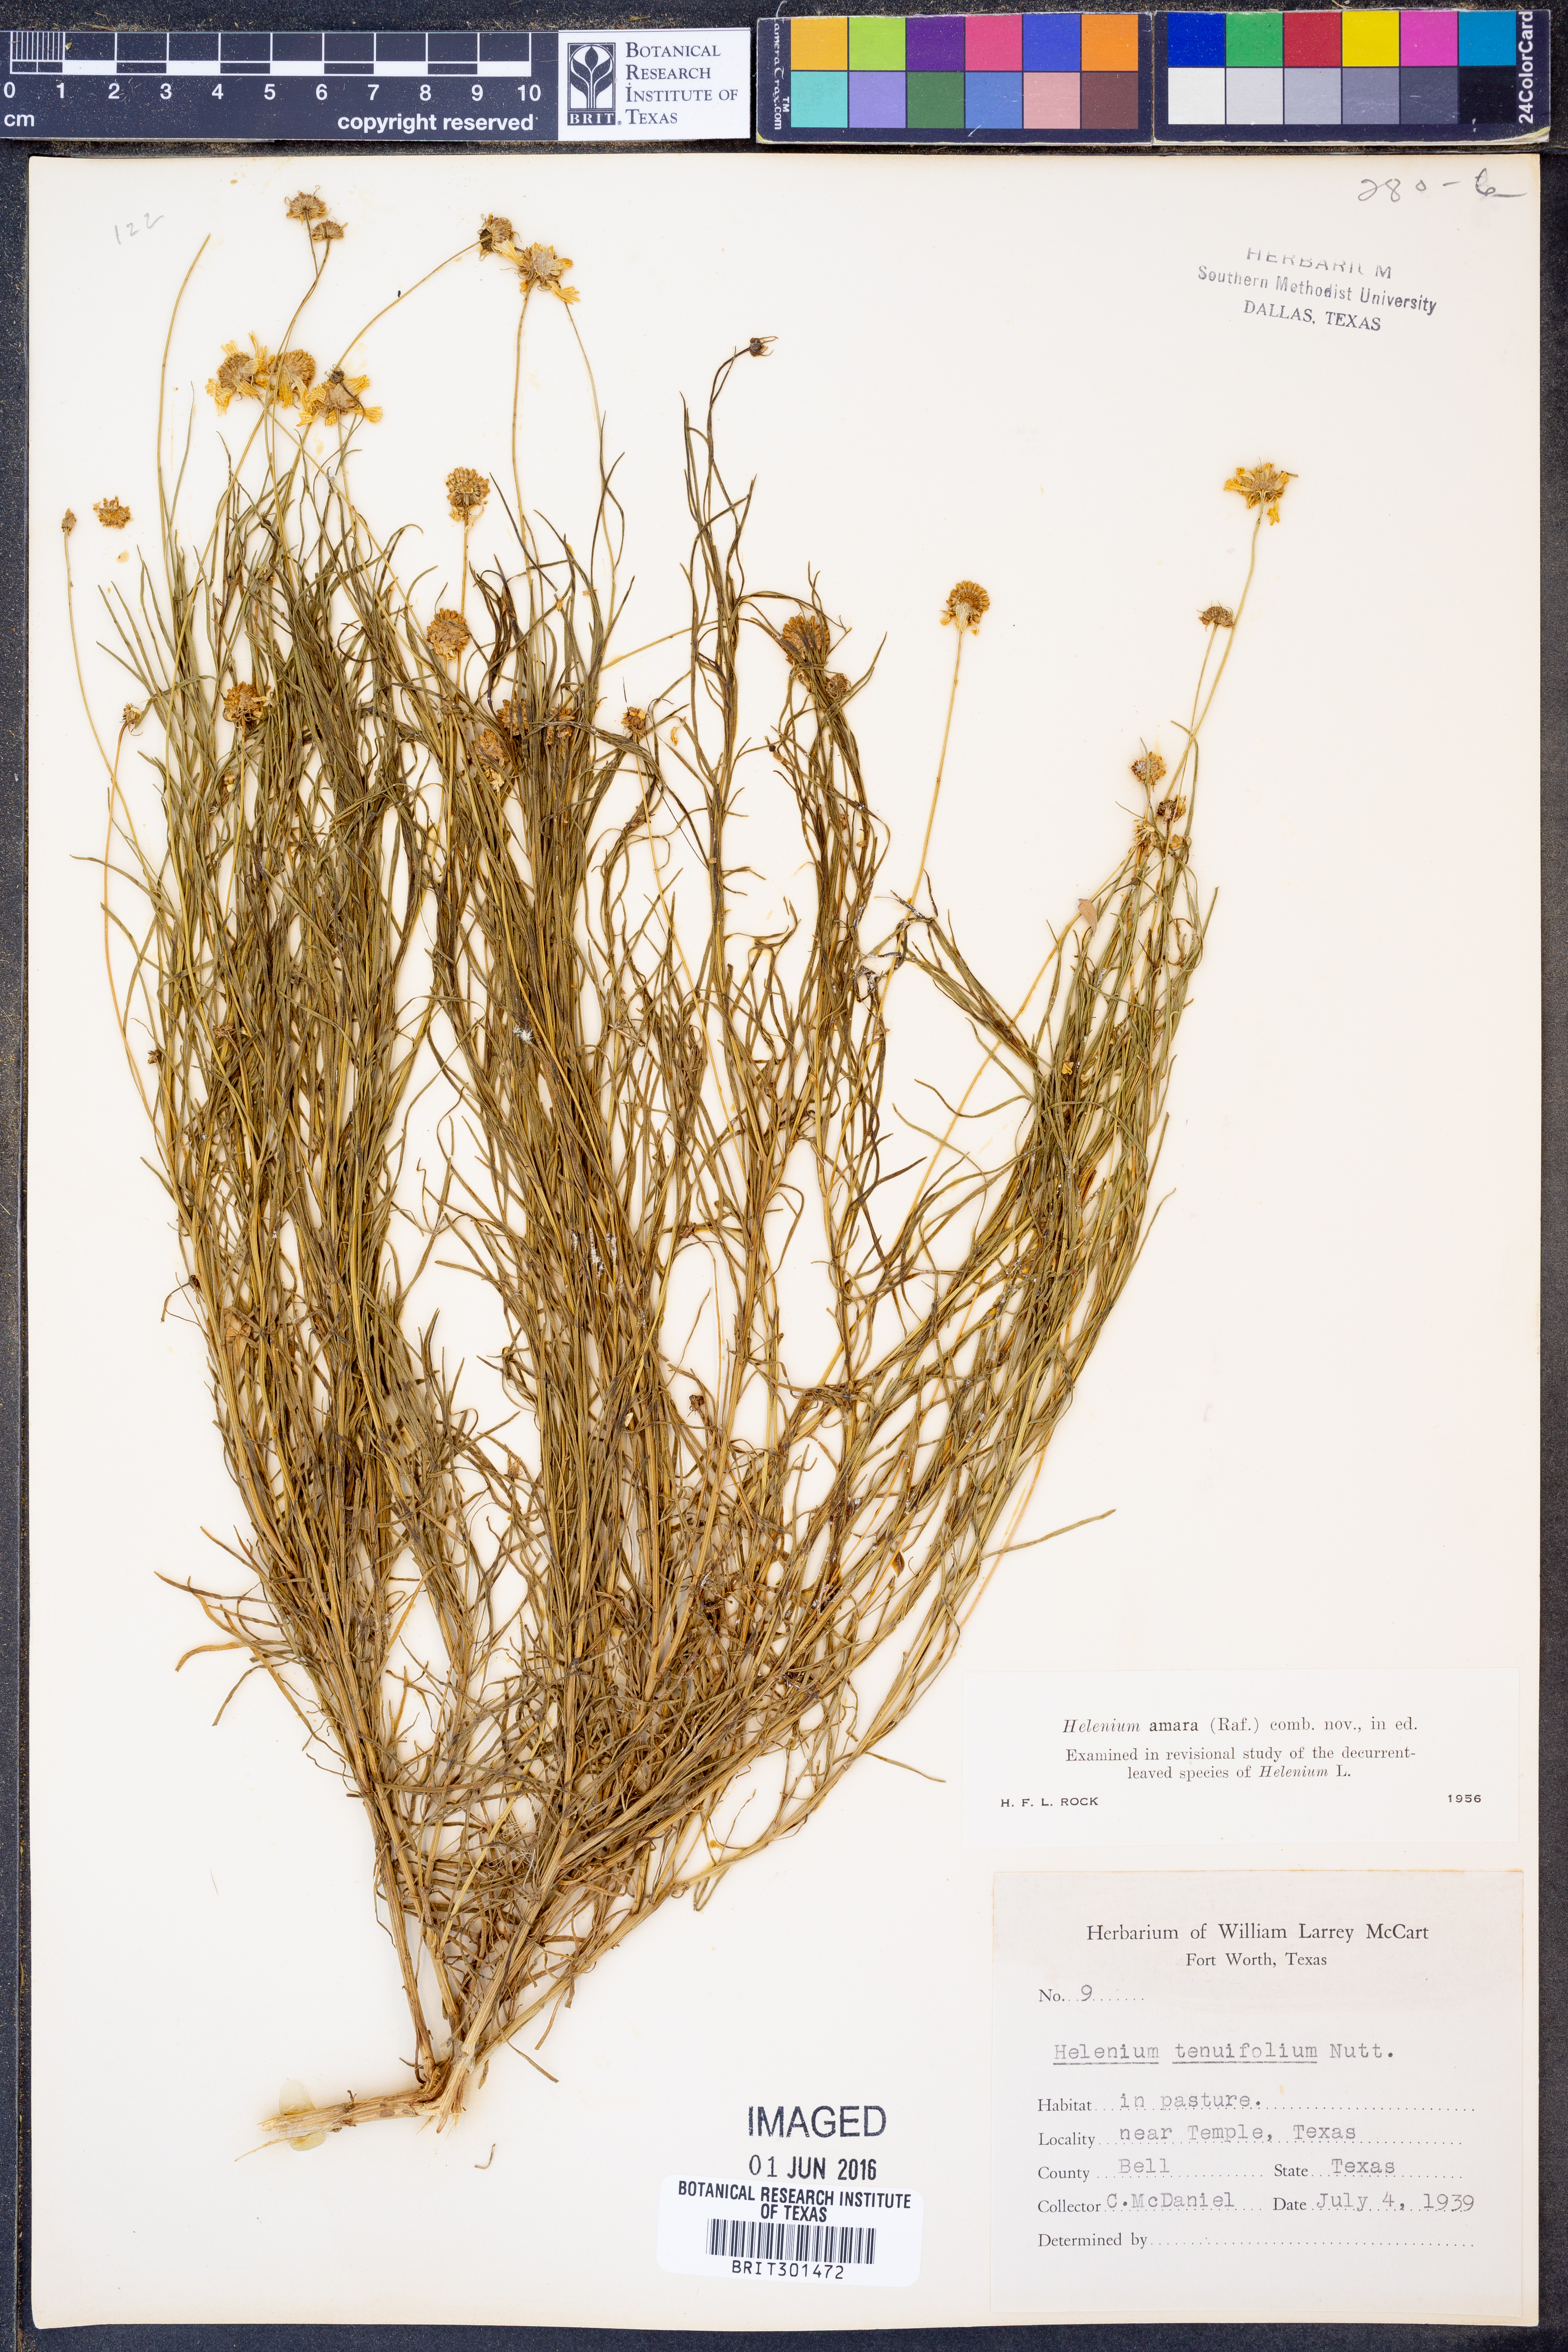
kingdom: Plantae
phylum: Tracheophyta
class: Magnoliopsida
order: Asterales
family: Asteraceae
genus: Helenium
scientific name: Helenium amarum
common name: Bitter sneezeweed
